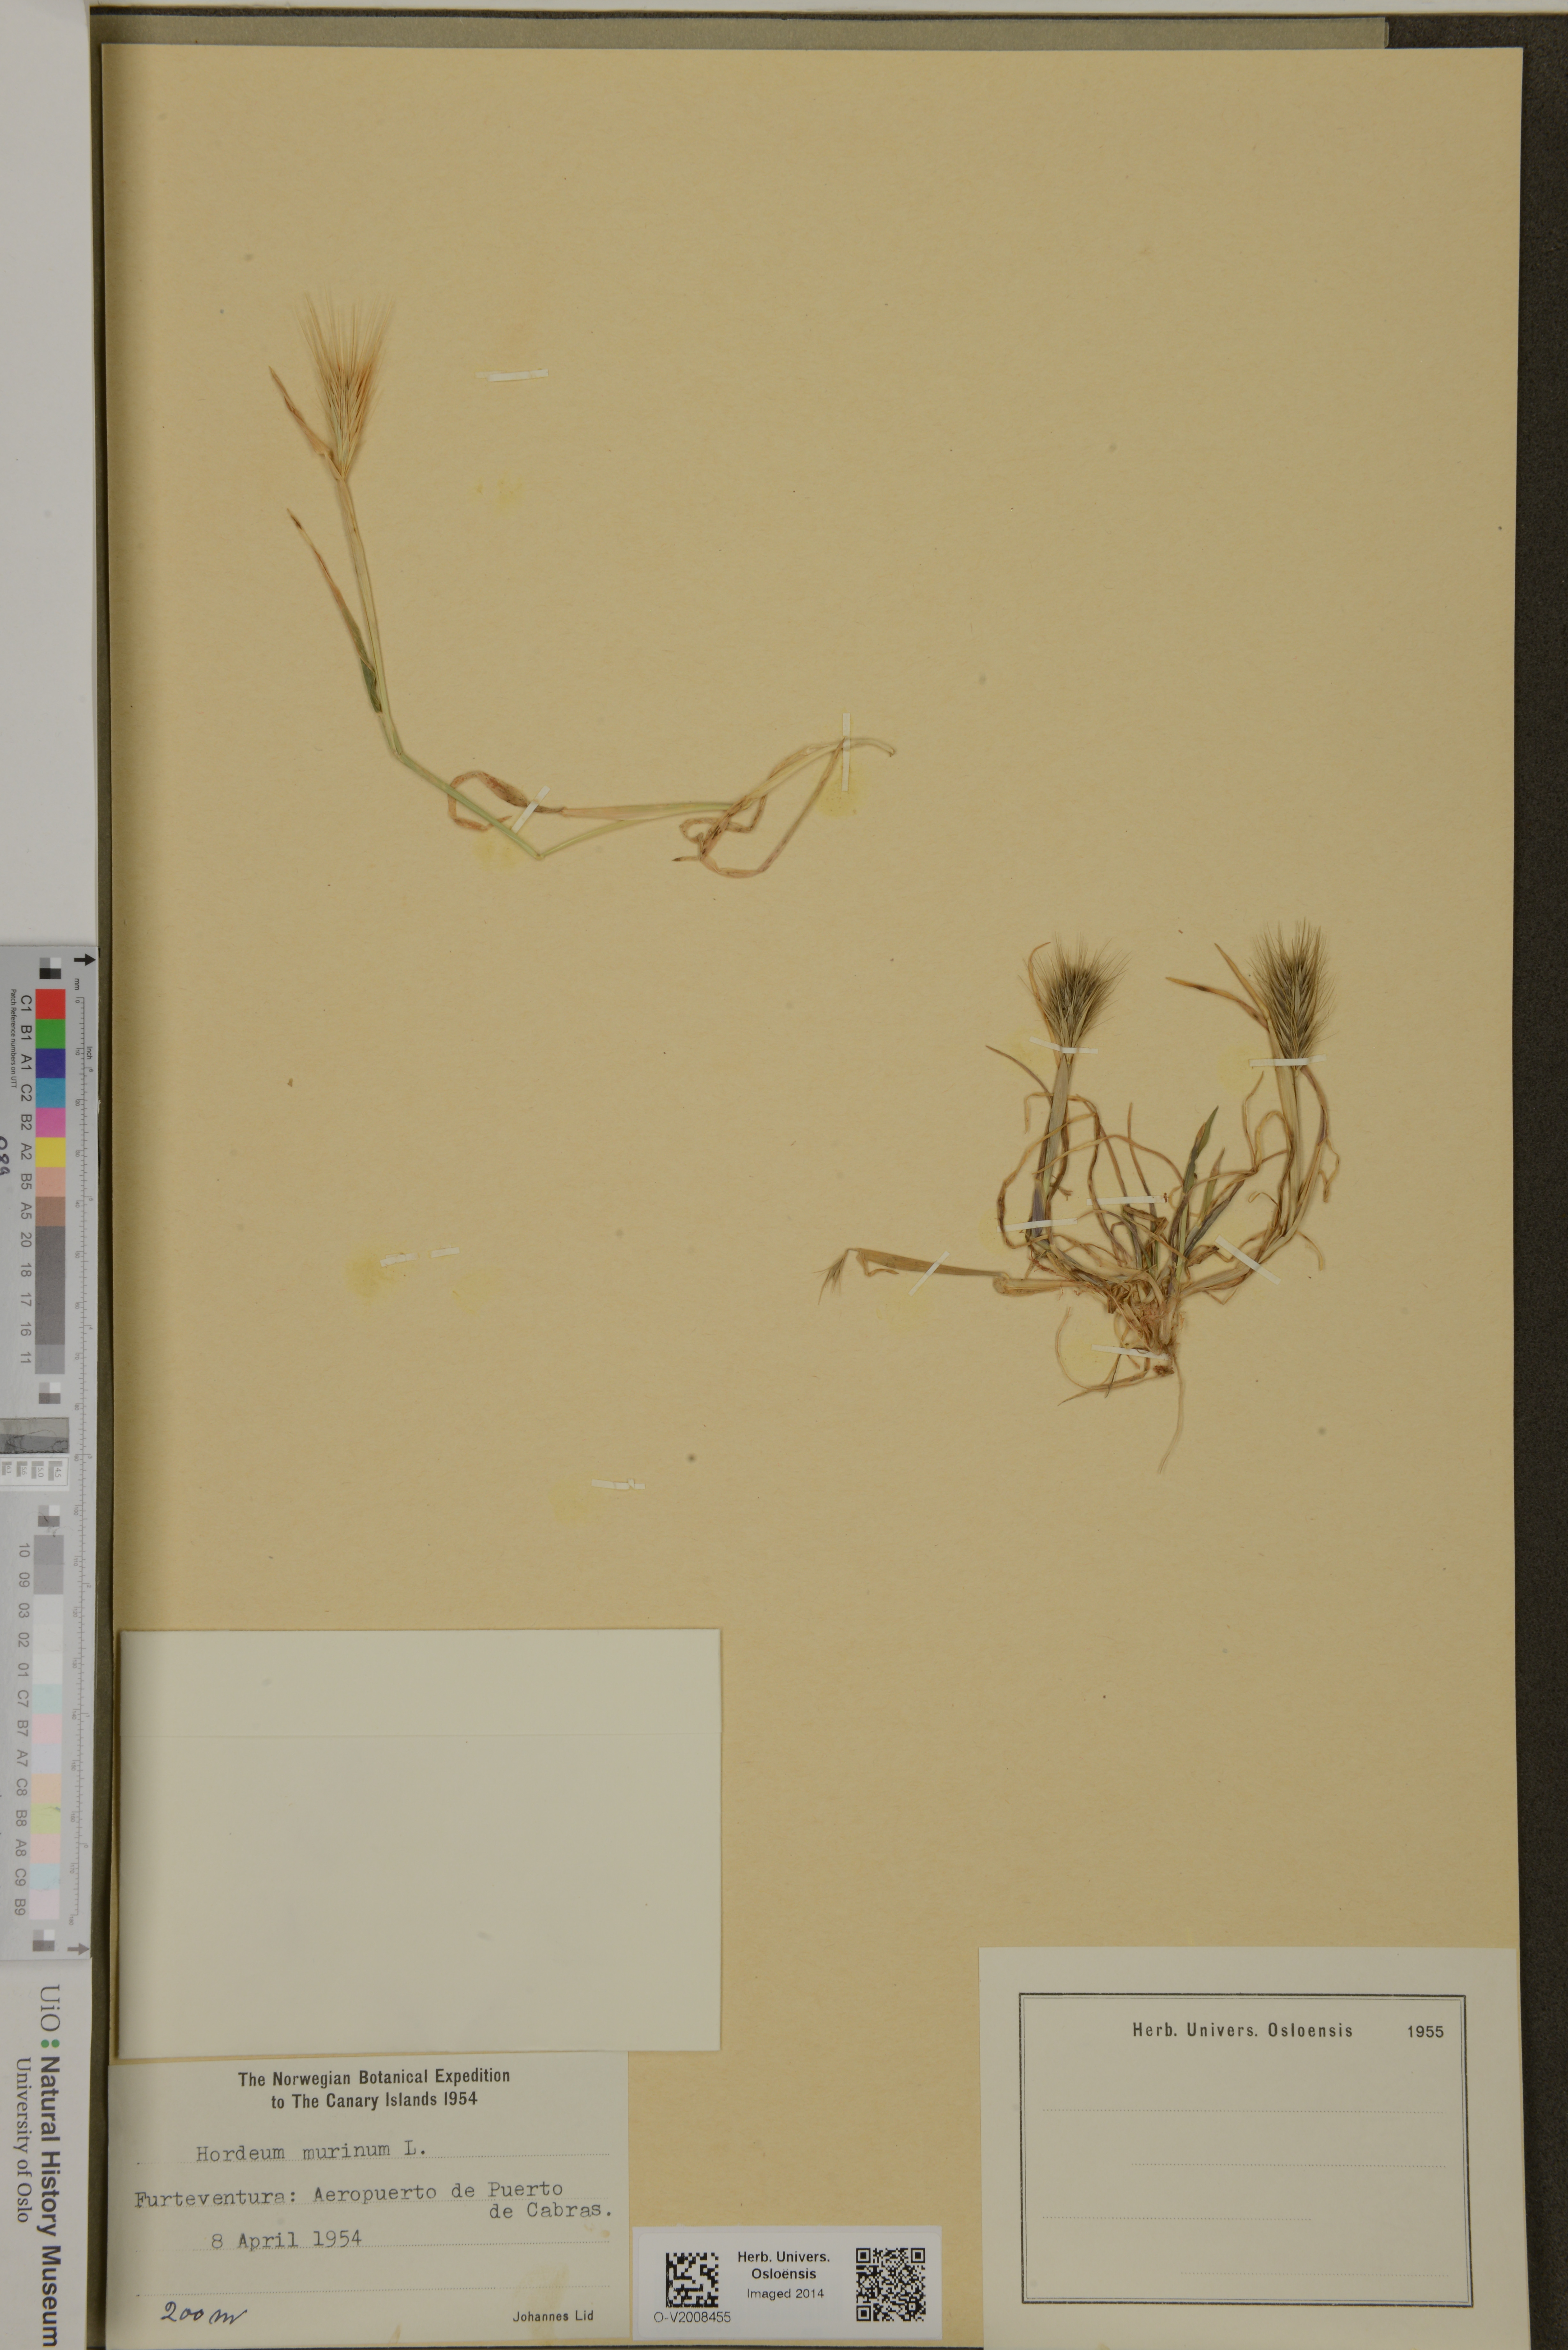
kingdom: Plantae
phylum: Tracheophyta
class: Liliopsida
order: Poales
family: Poaceae
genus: Hordeum
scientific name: Hordeum murinum
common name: Wall barley
